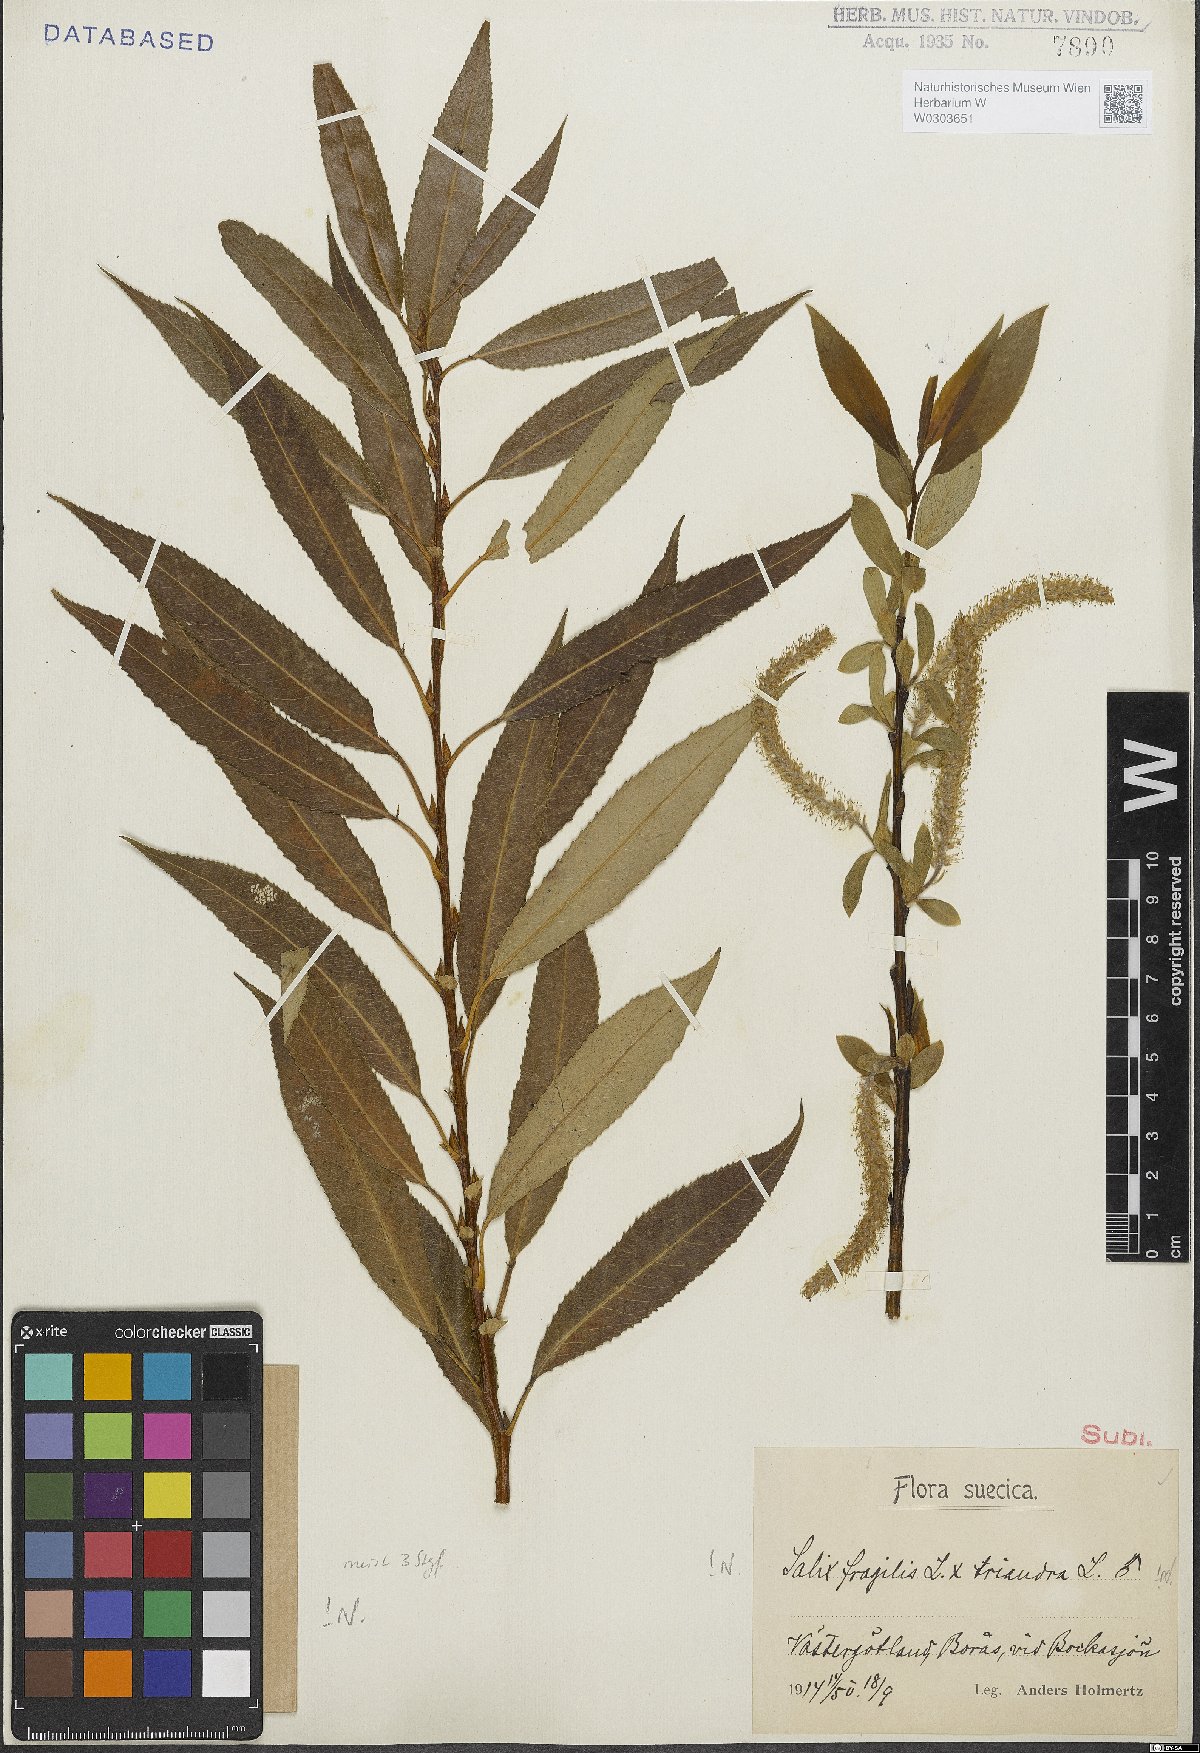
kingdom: Plantae
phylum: Tracheophyta
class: Magnoliopsida
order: Malpighiales
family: Salicaceae
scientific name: Salicaceae
